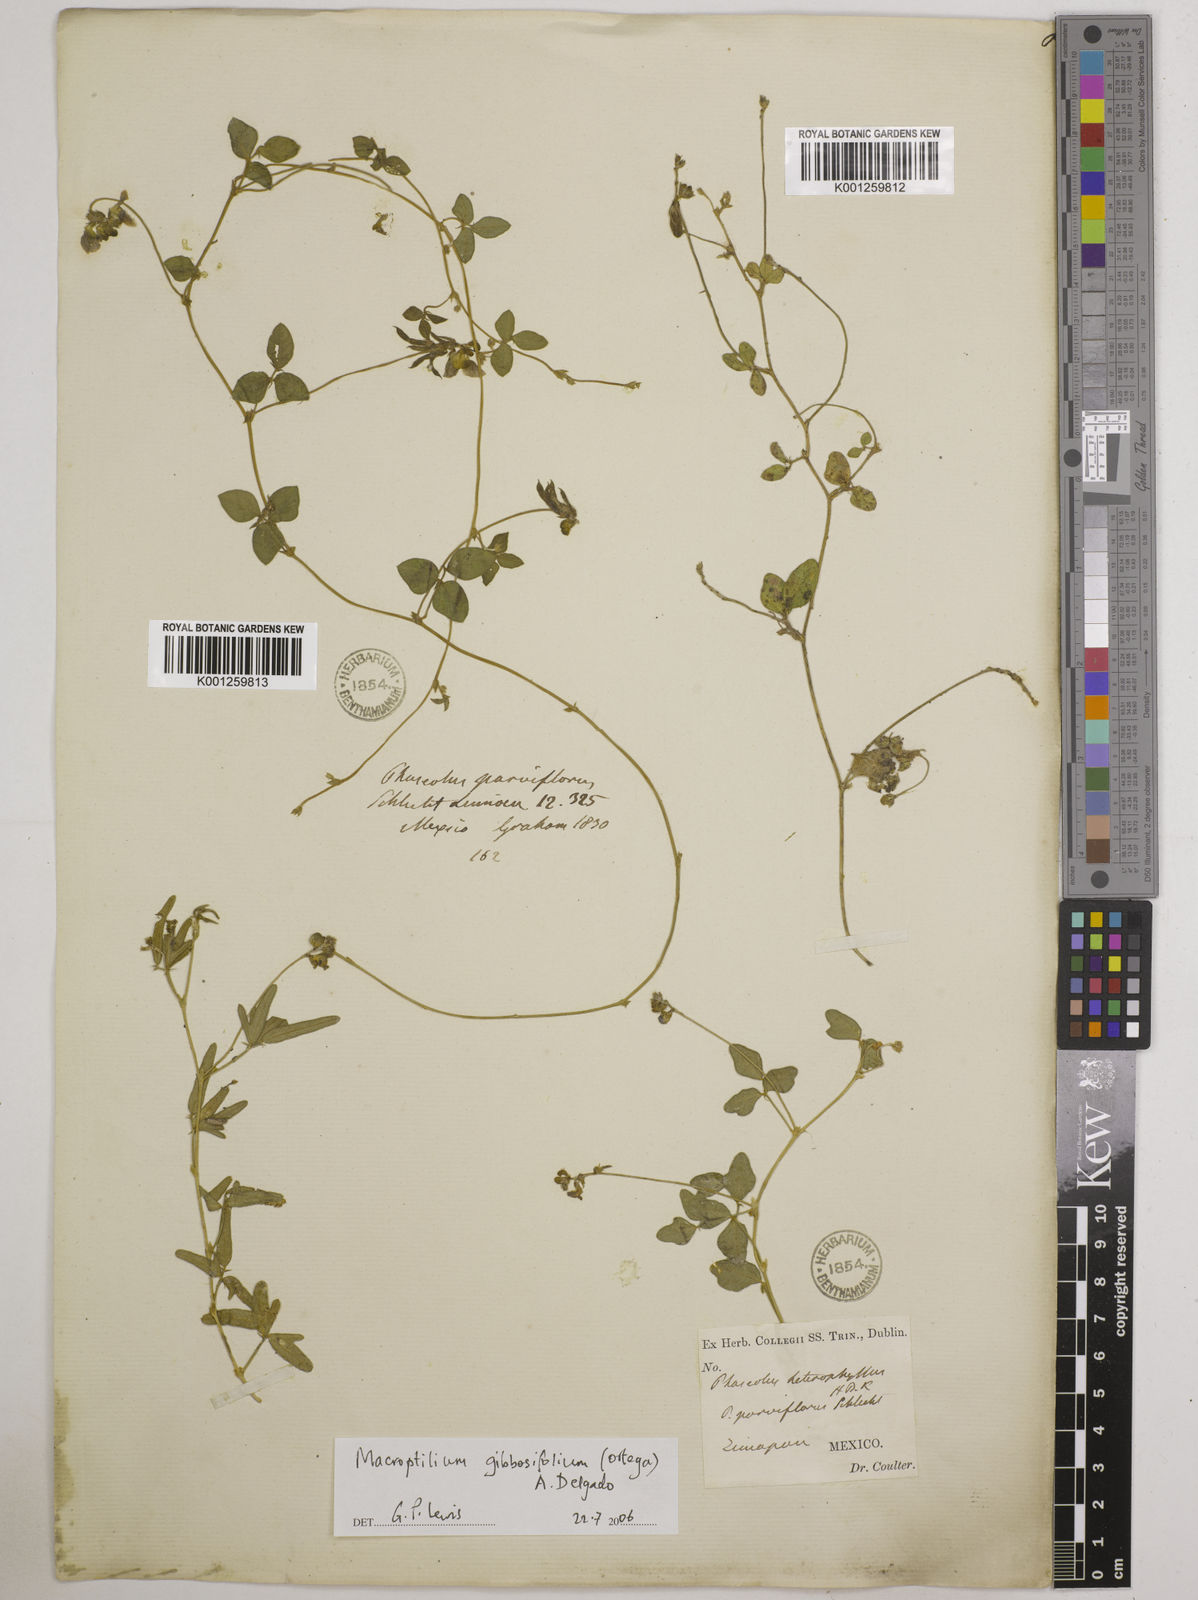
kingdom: Plantae
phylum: Tracheophyta
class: Magnoliopsida
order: Fabales
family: Fabaceae
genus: Macroptilium
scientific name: Macroptilium gibbosifolium
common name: Variableleaf bushbean
